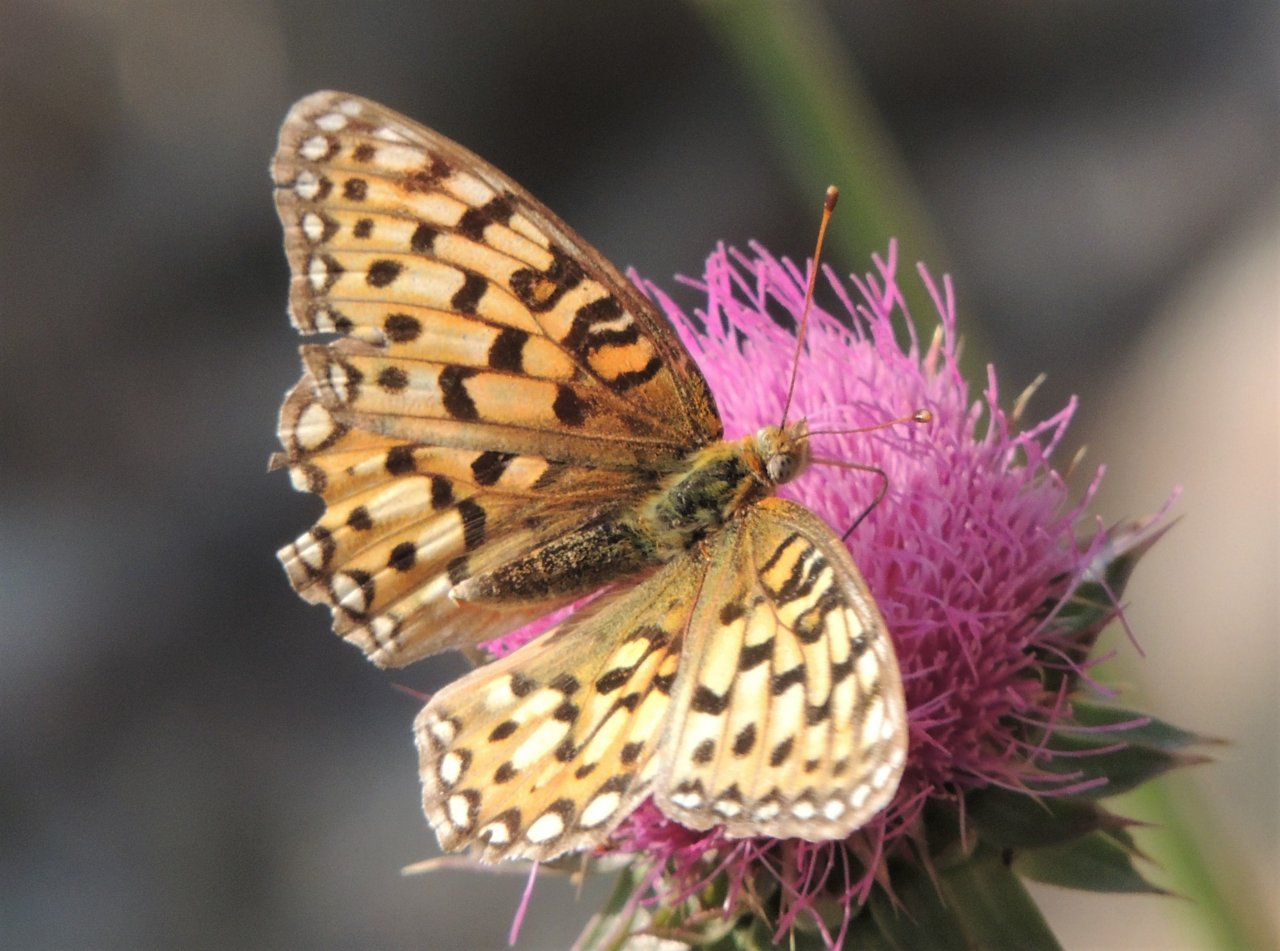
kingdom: Animalia
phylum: Arthropoda
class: Insecta
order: Lepidoptera
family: Nymphalidae
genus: Speyeria
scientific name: Speyeria callippe
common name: Callippe Fritillary
